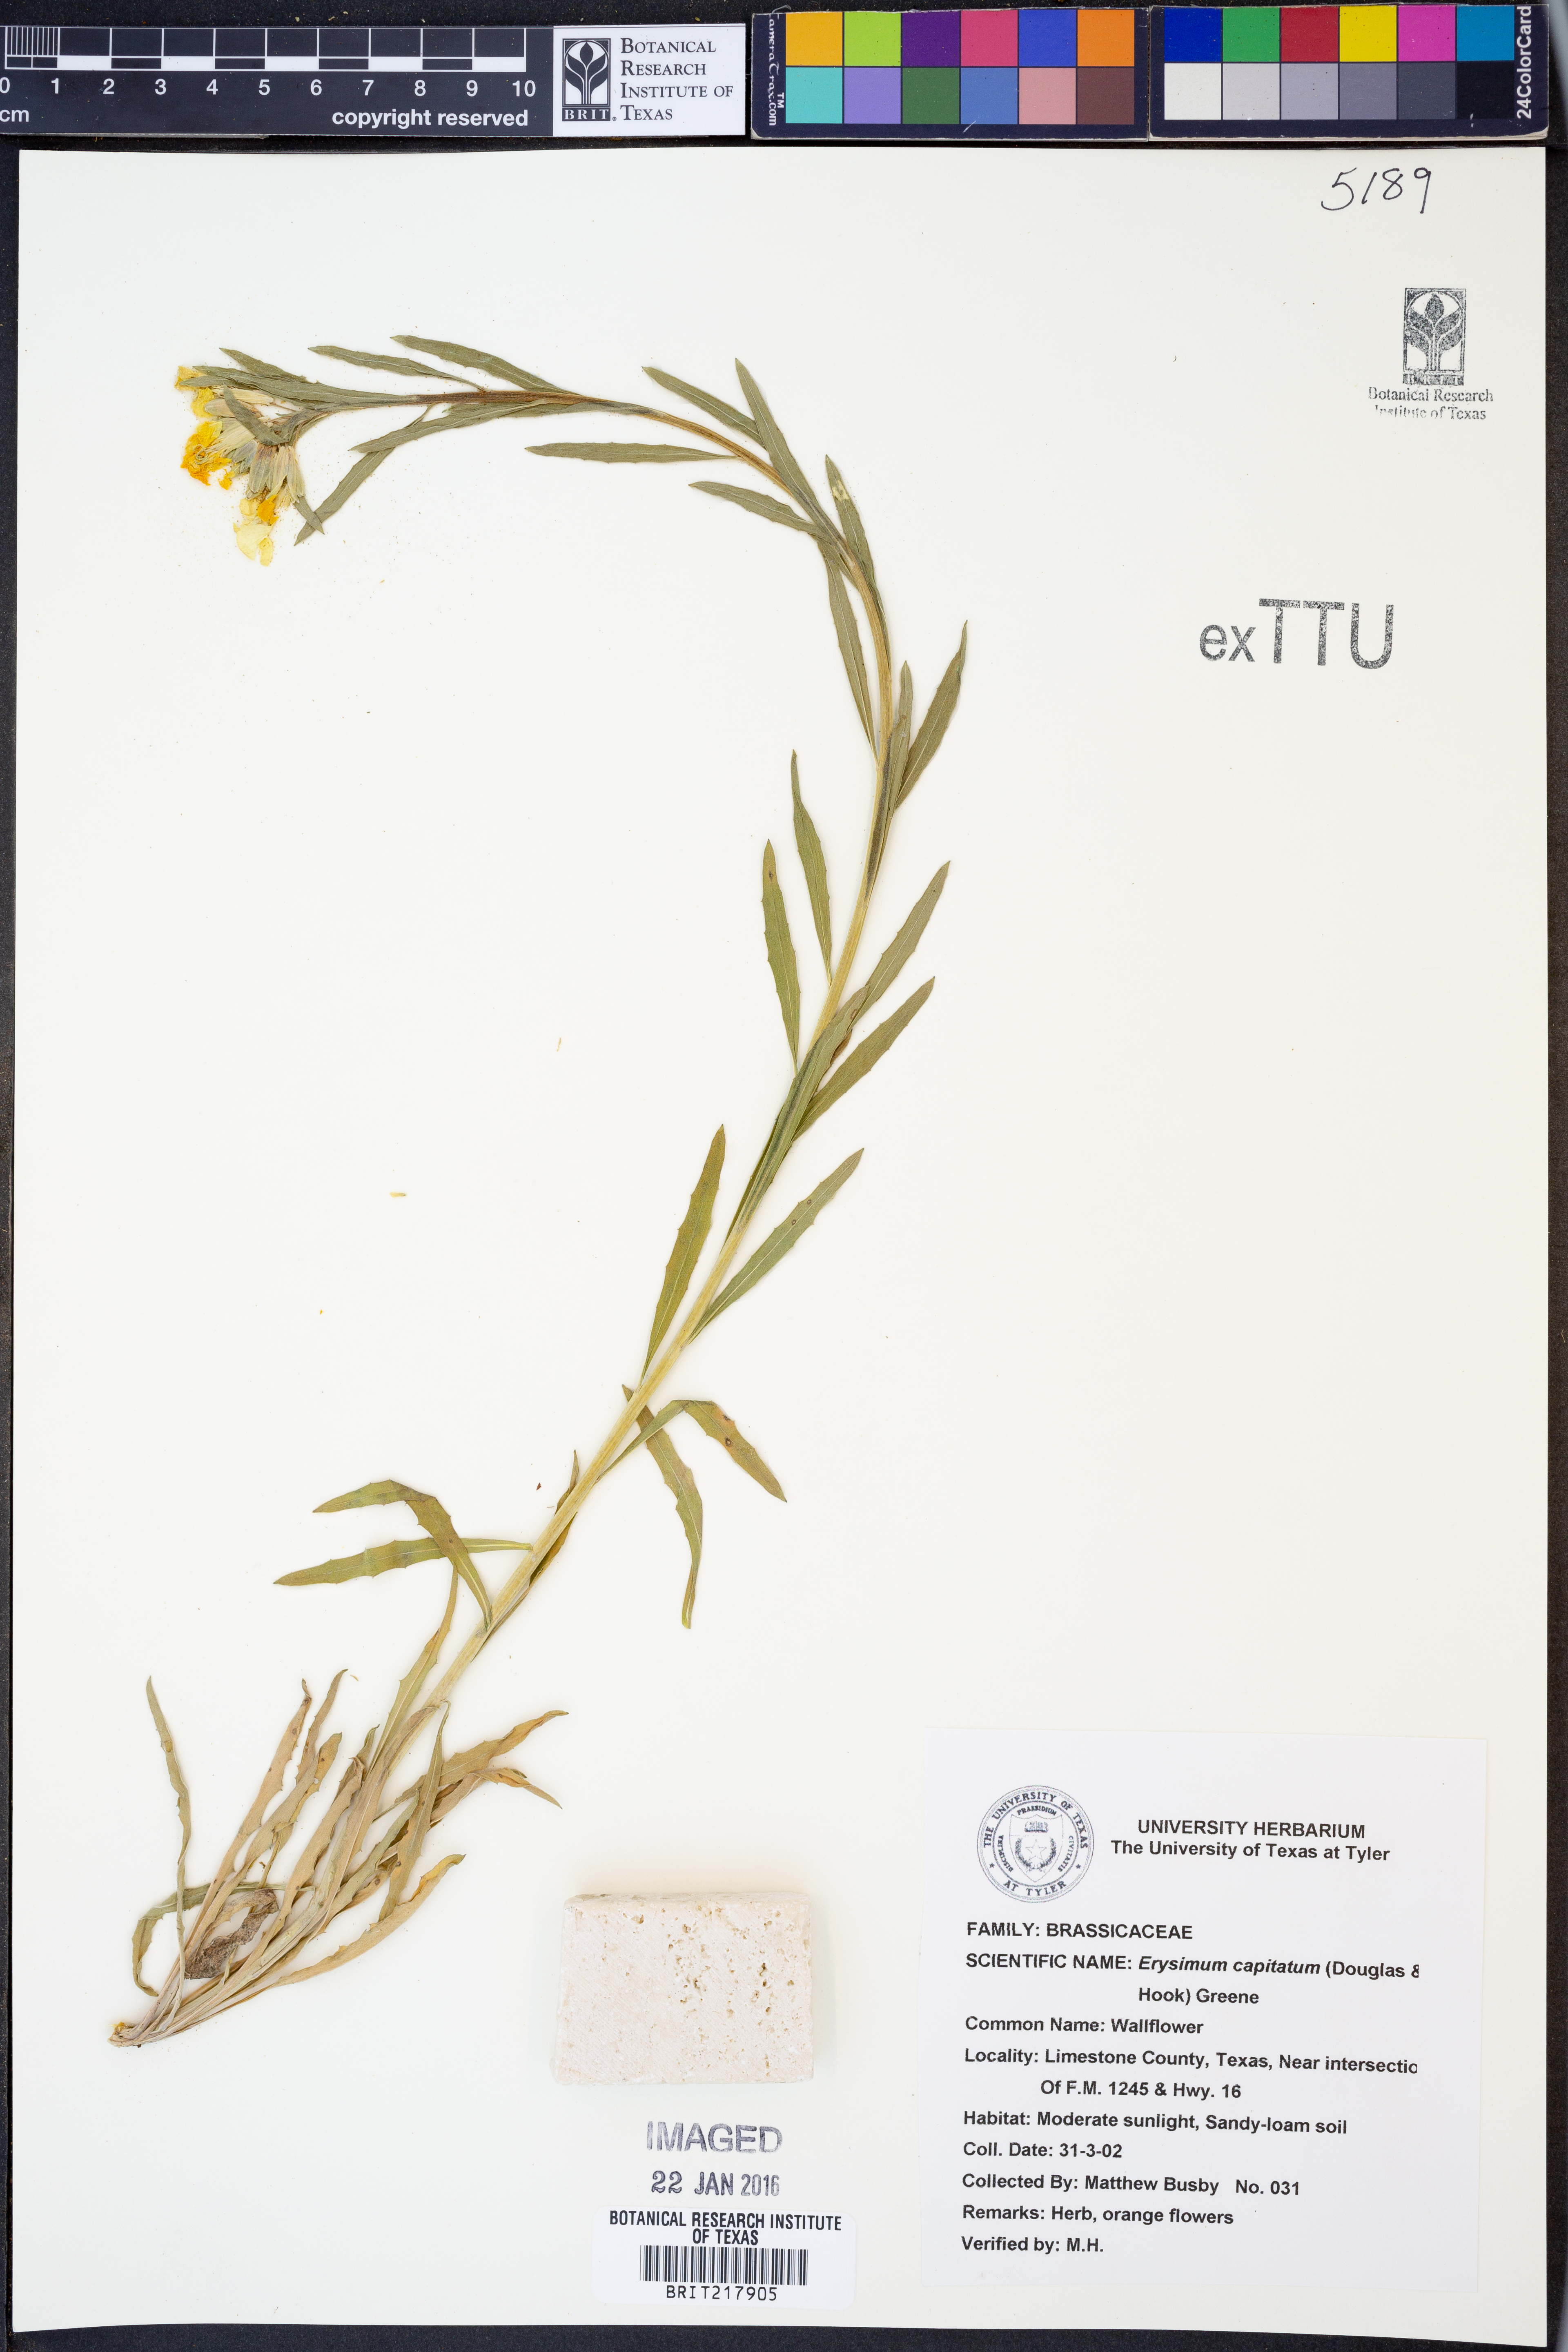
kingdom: Plantae
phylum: Tracheophyta
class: Magnoliopsida
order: Brassicales
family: Brassicaceae
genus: Erysimum
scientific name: Erysimum capitatum
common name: Western wallflower
